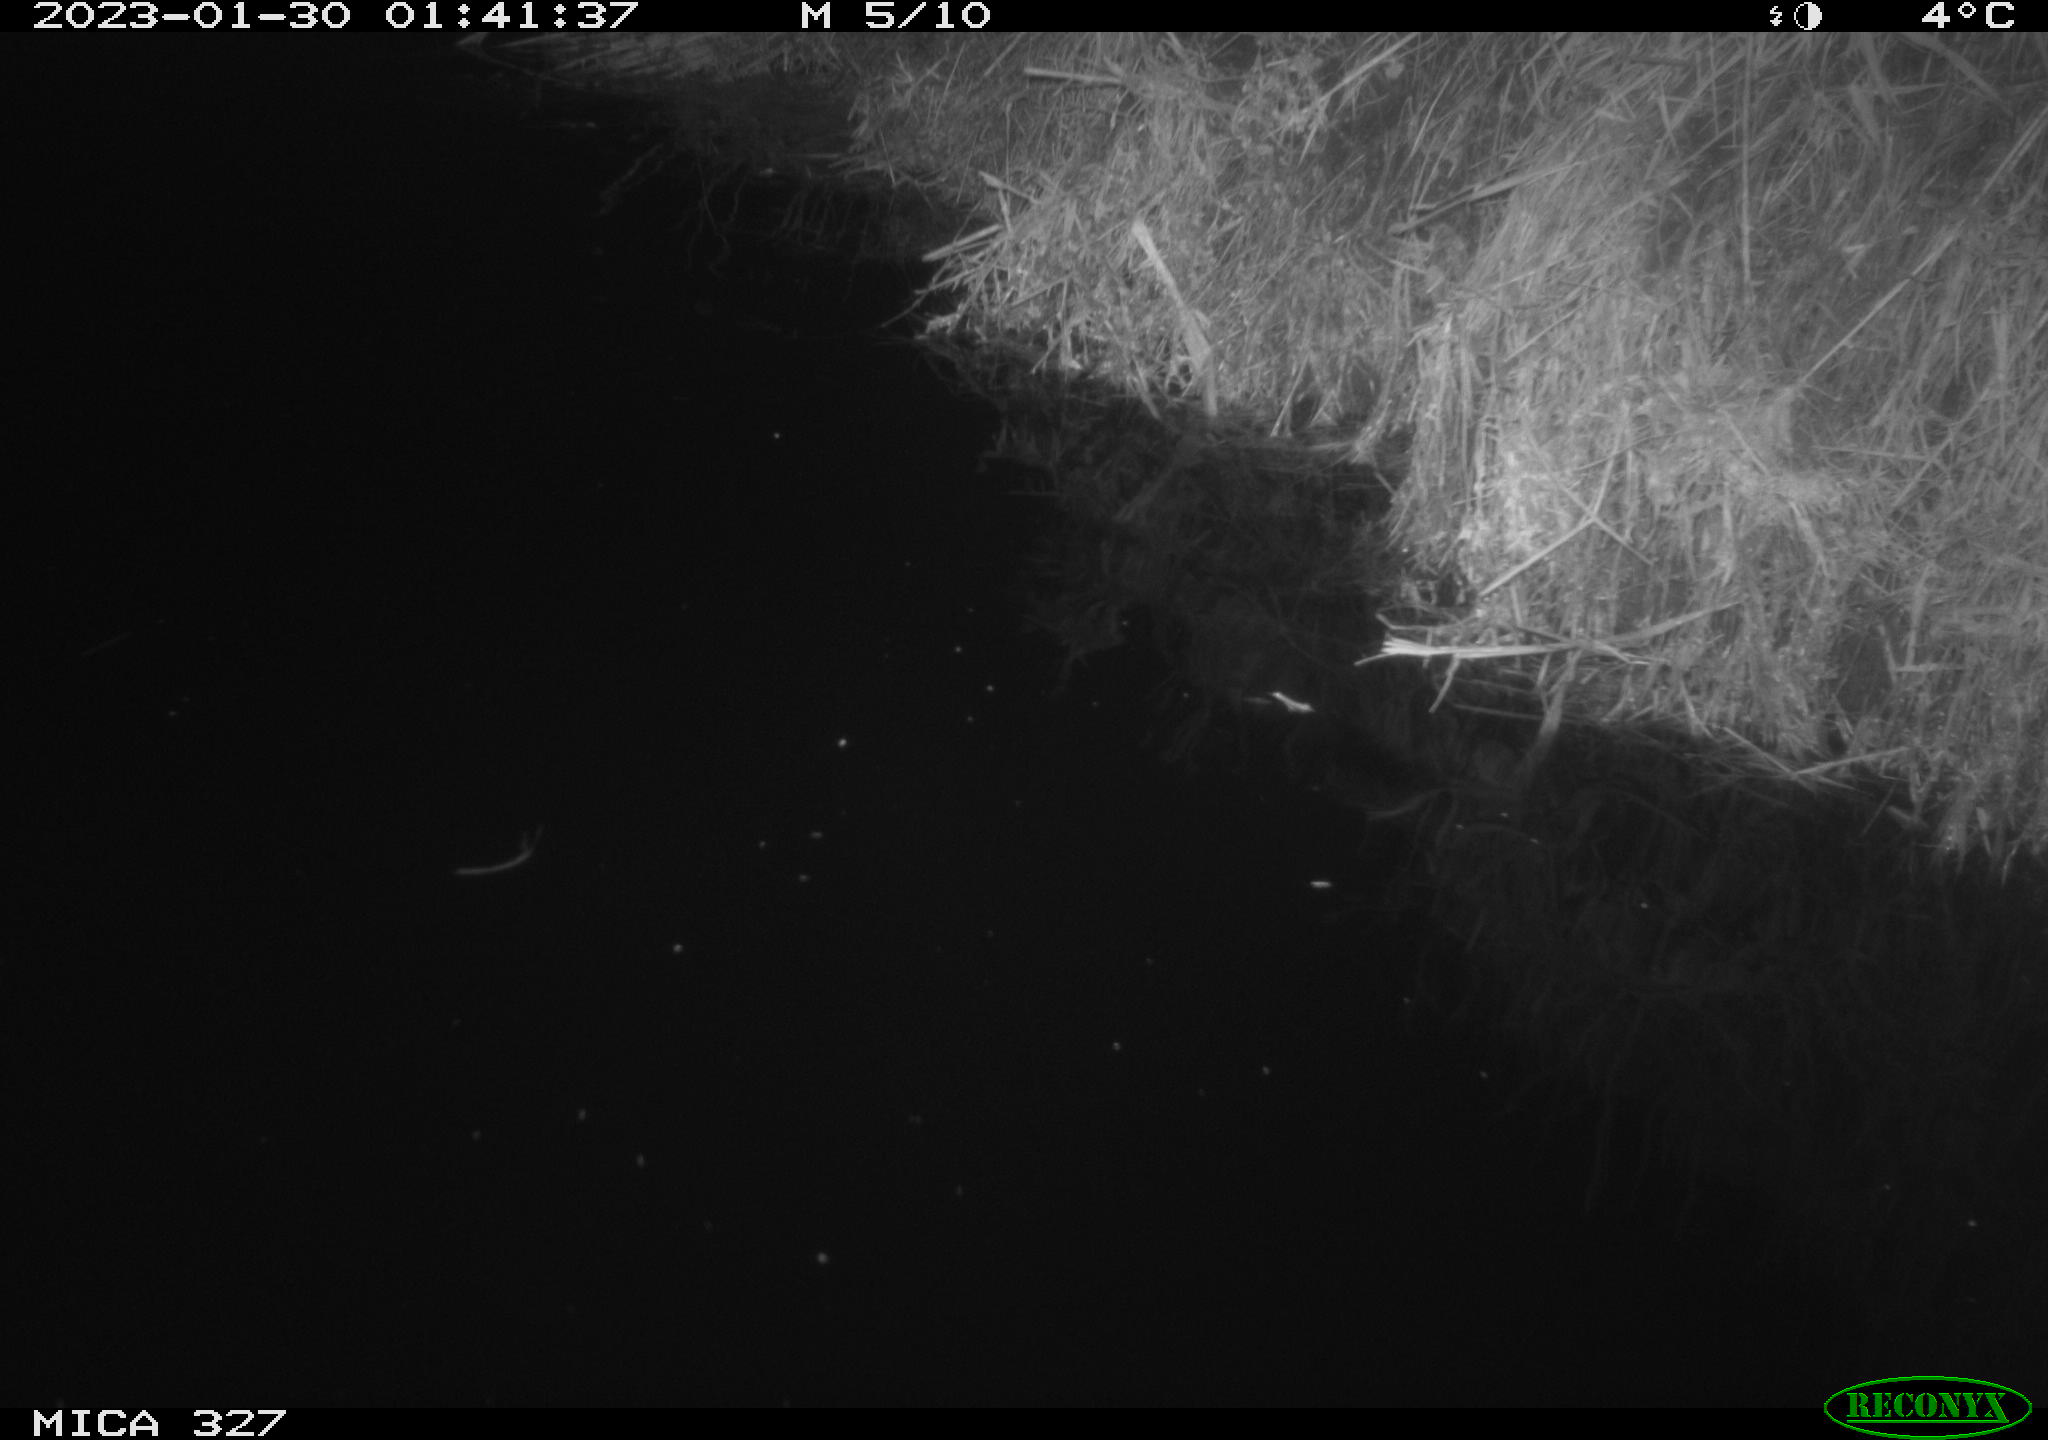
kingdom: Animalia
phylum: Chordata
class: Mammalia
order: Rodentia
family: Cricetidae
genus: Ondatra
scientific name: Ondatra zibethicus
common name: Muskrat
